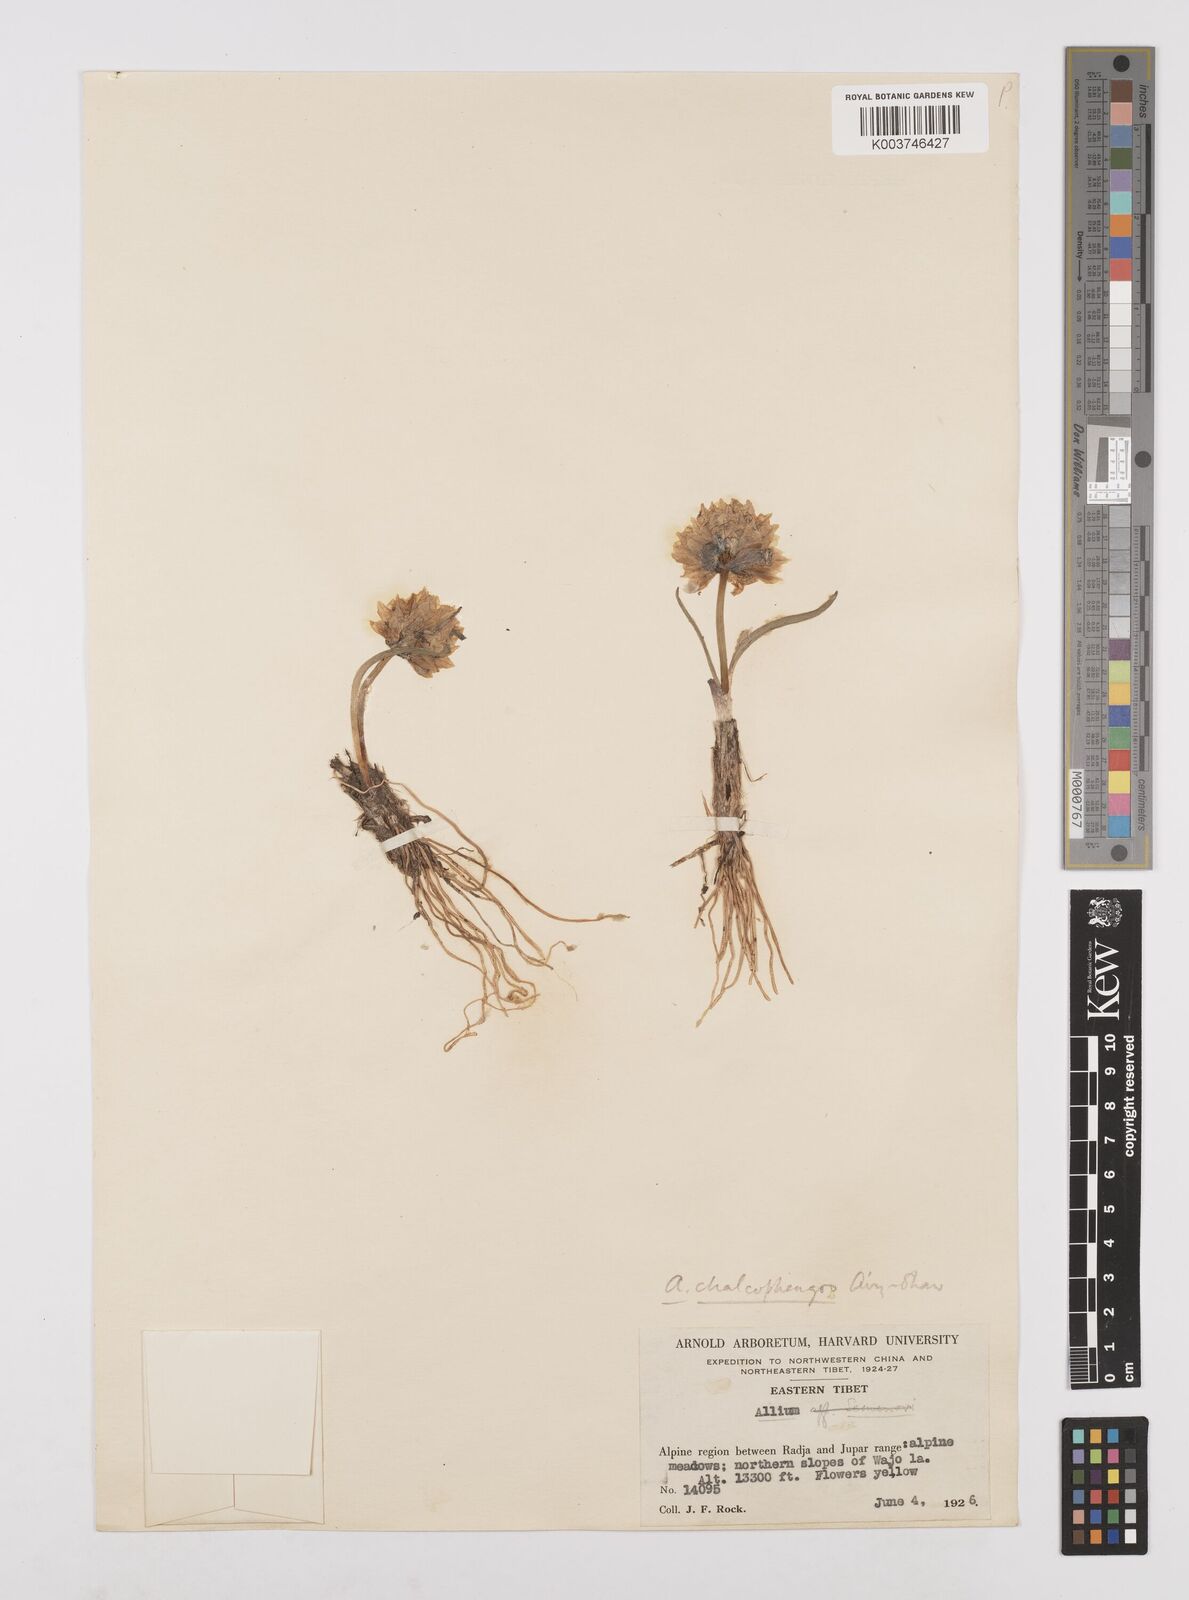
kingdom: Plantae
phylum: Tracheophyta
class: Liliopsida
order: Asparagales
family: Amaryllidaceae
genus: Allium
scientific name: Allium atrosanguineum
